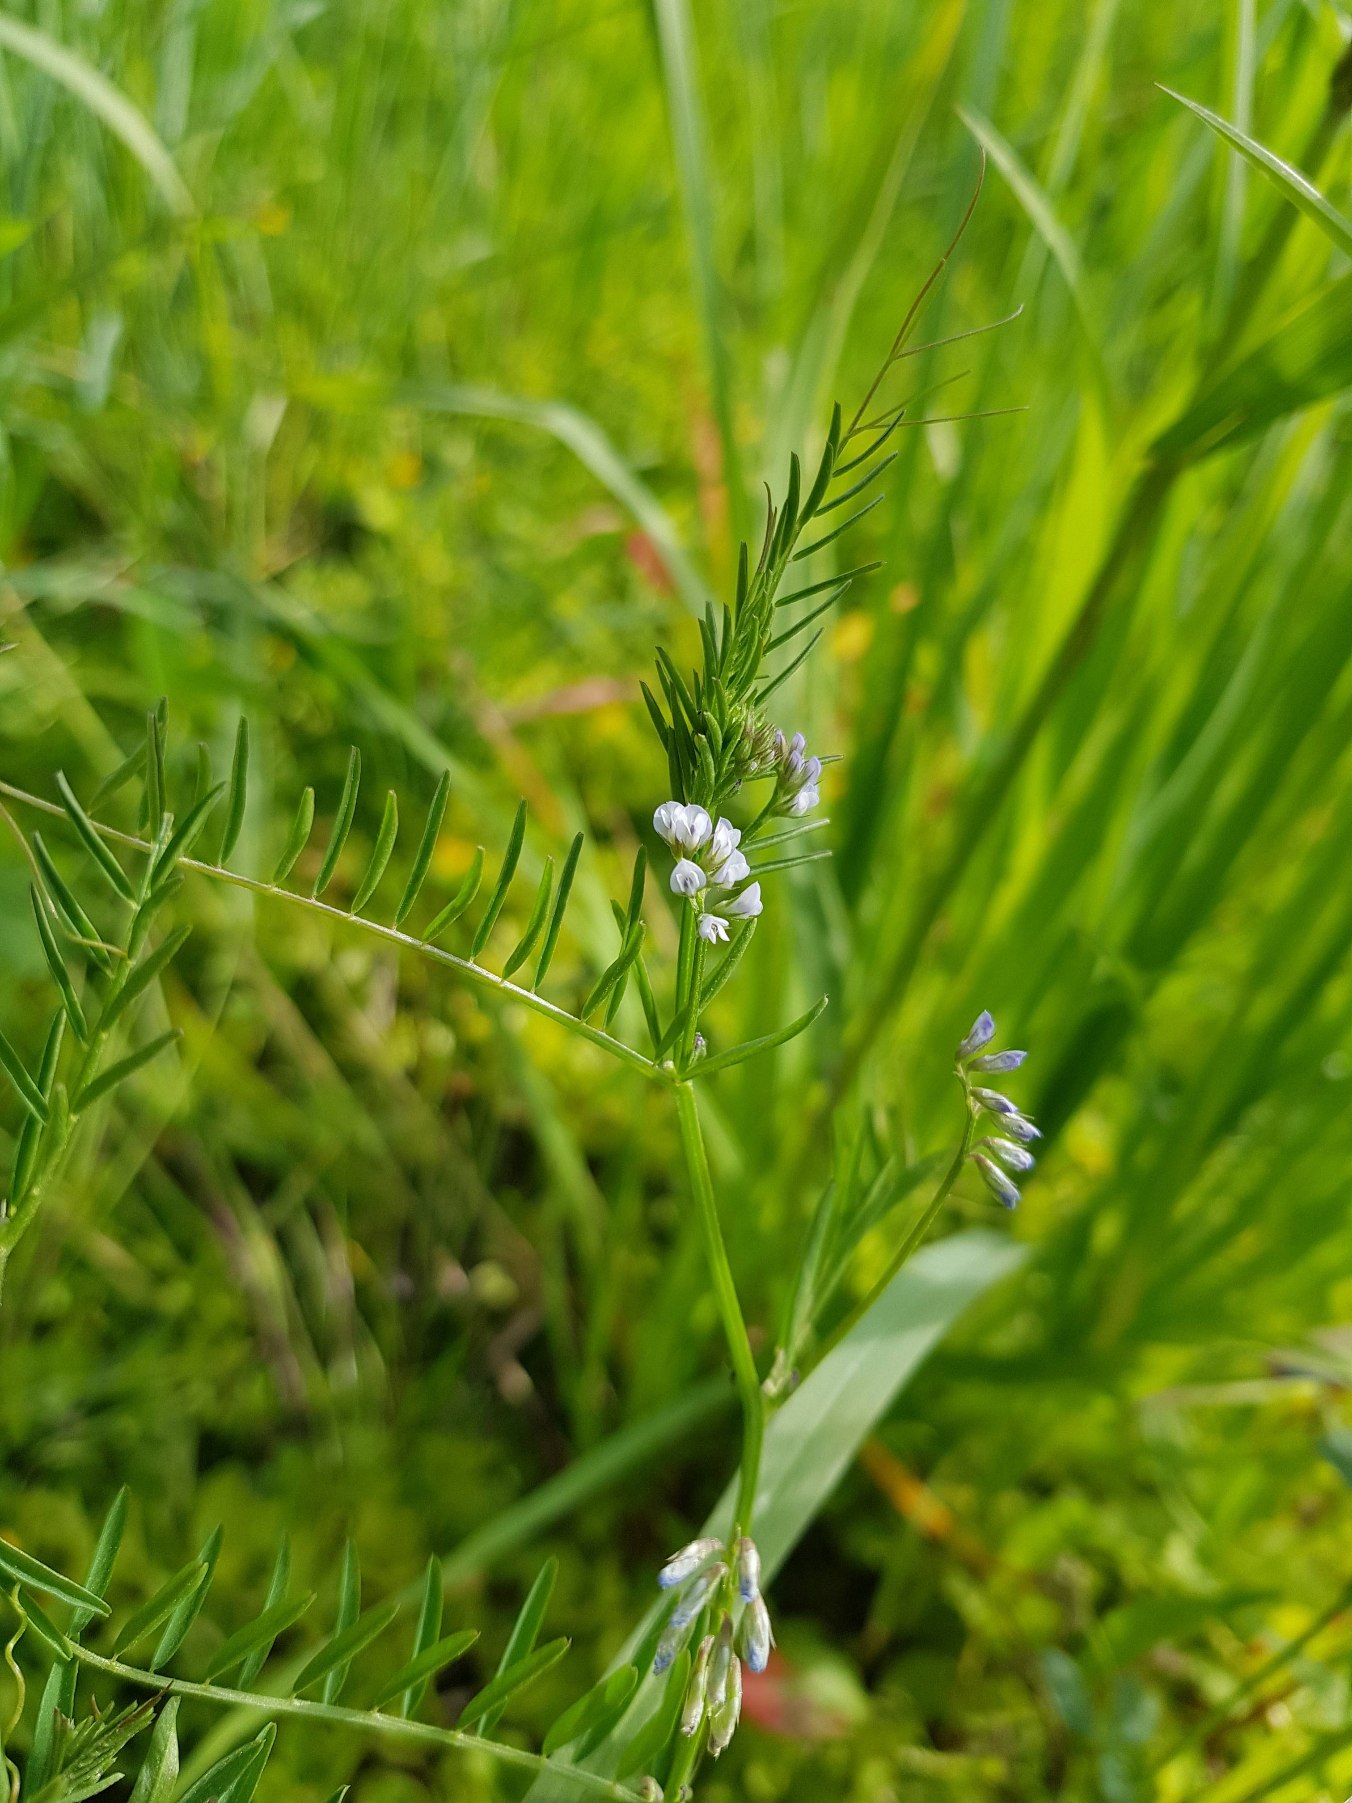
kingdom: Plantae
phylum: Tracheophyta
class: Magnoliopsida
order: Fabales
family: Fabaceae
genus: Vicia
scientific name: Vicia hirsuta
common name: Tofrøet vikke
